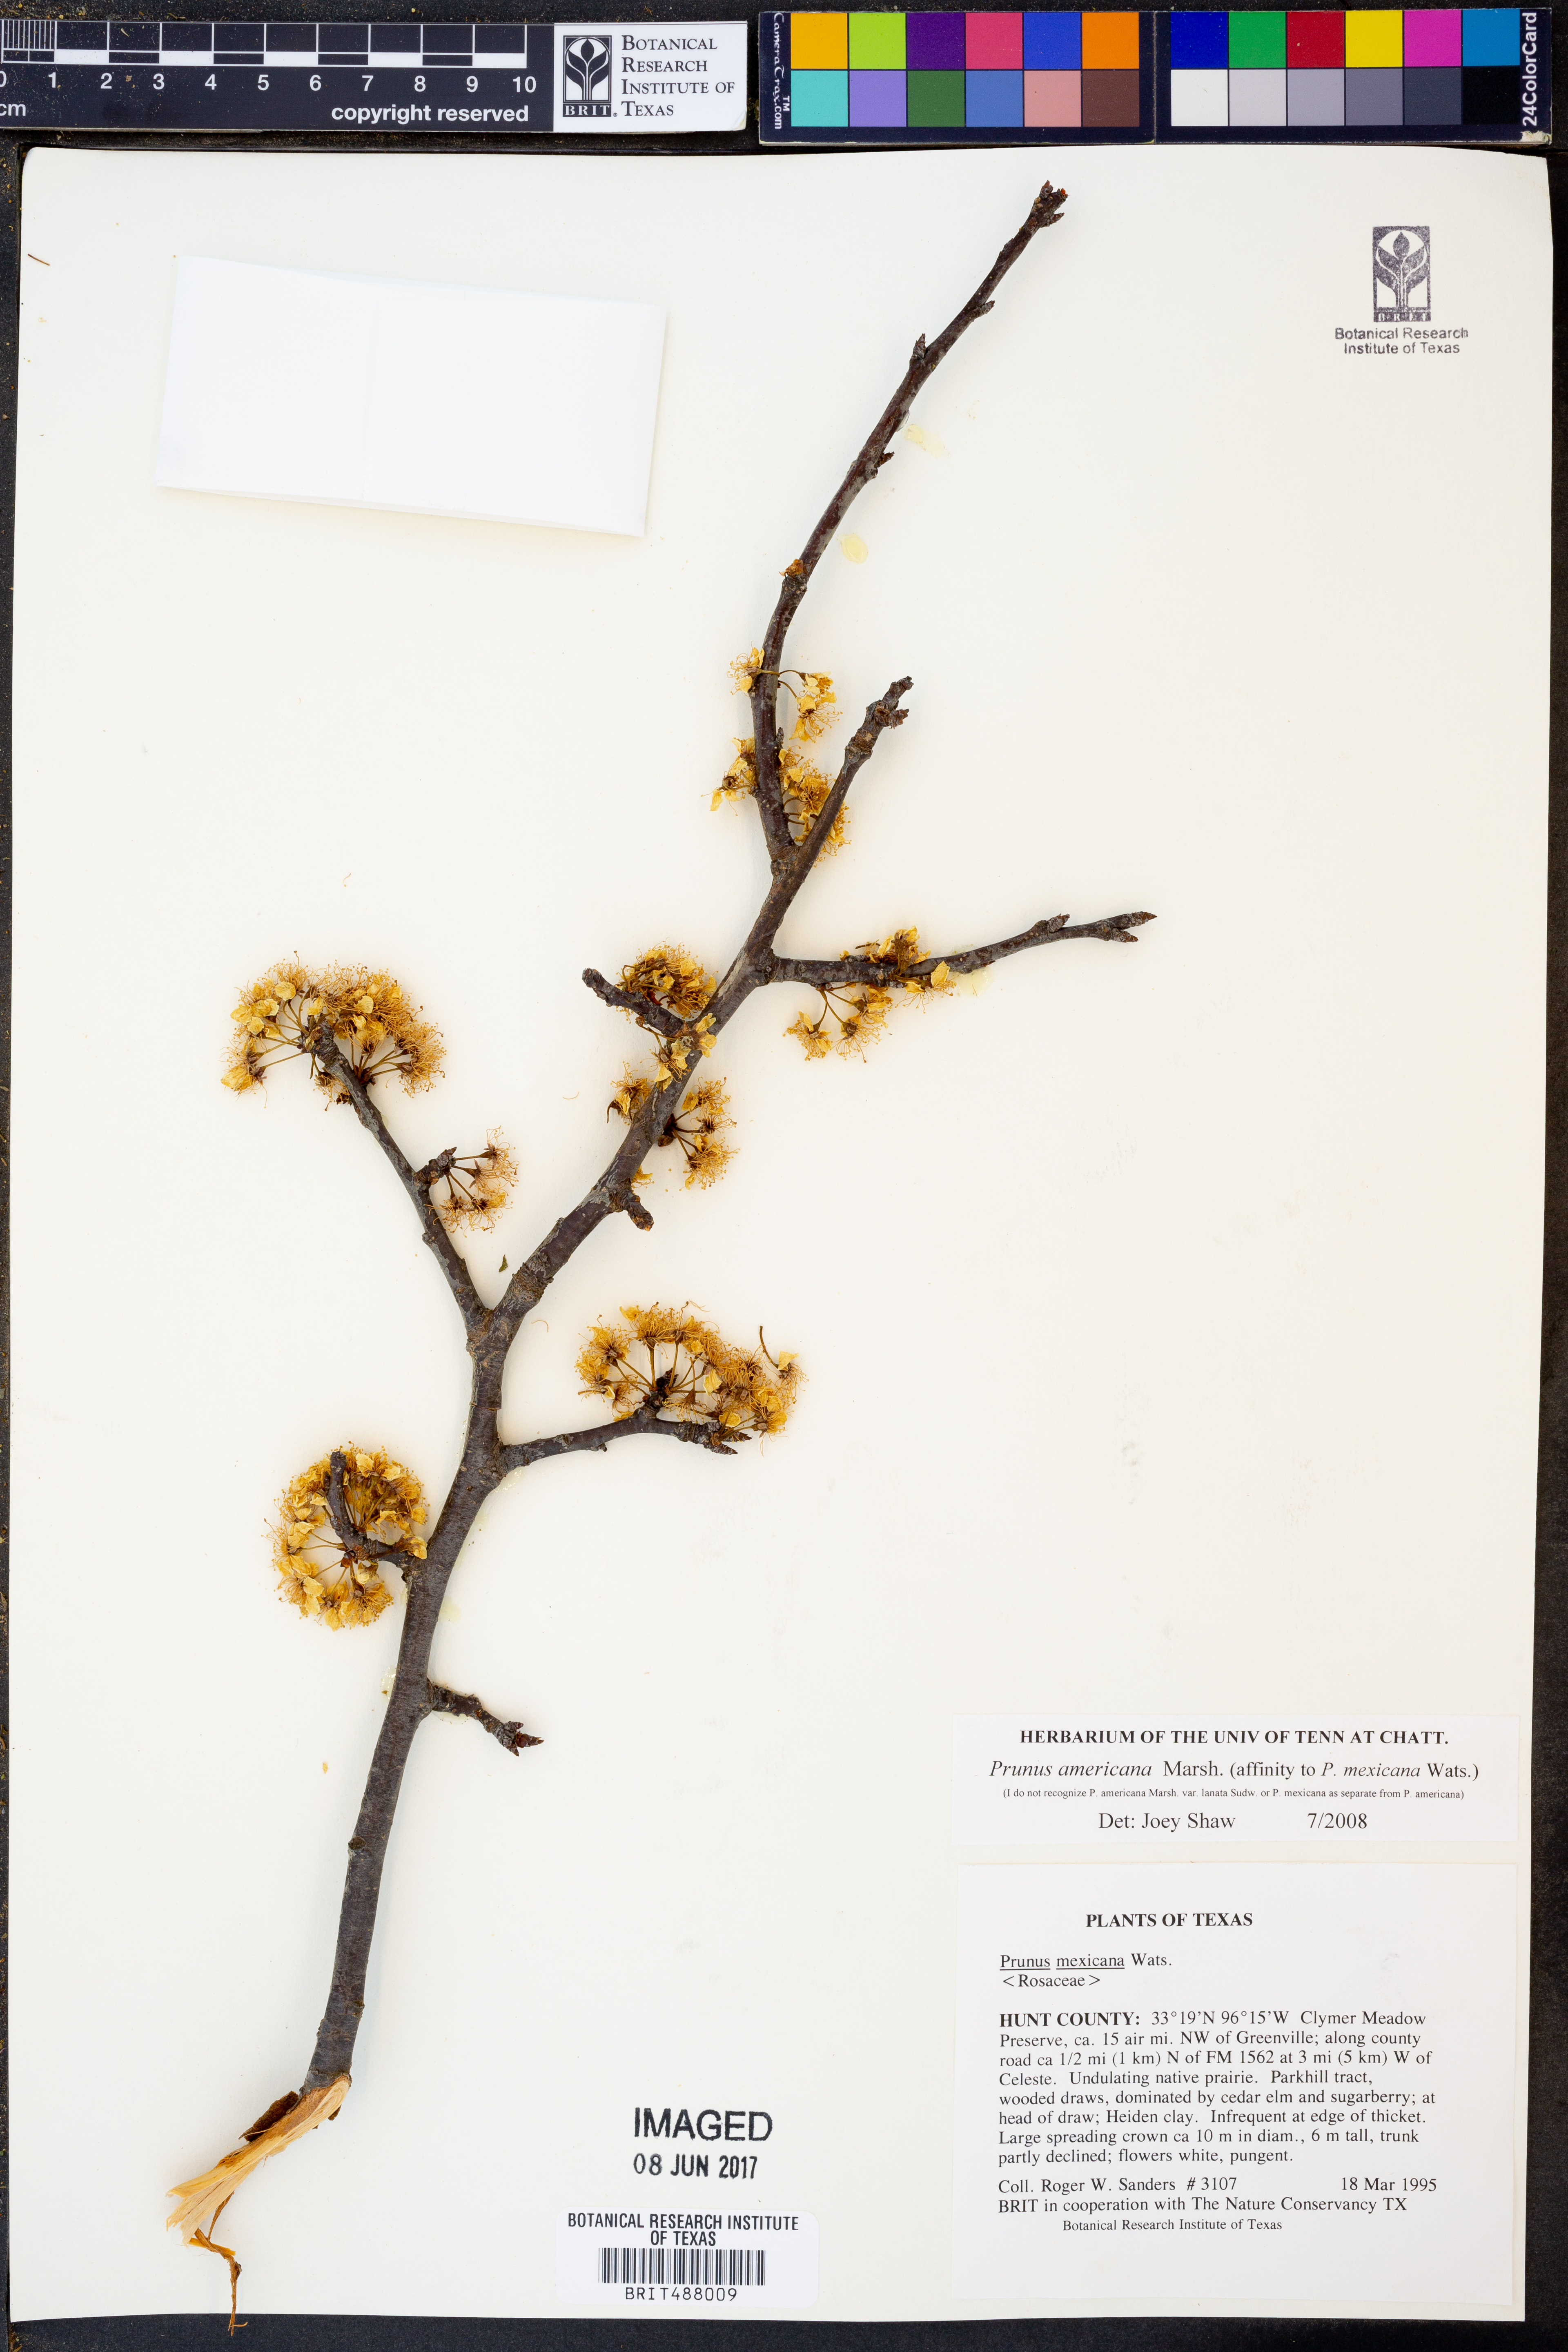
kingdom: Plantae
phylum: Tracheophyta
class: Magnoliopsida
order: Rosales
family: Rosaceae
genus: Prunus
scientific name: Prunus americana
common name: American plum
